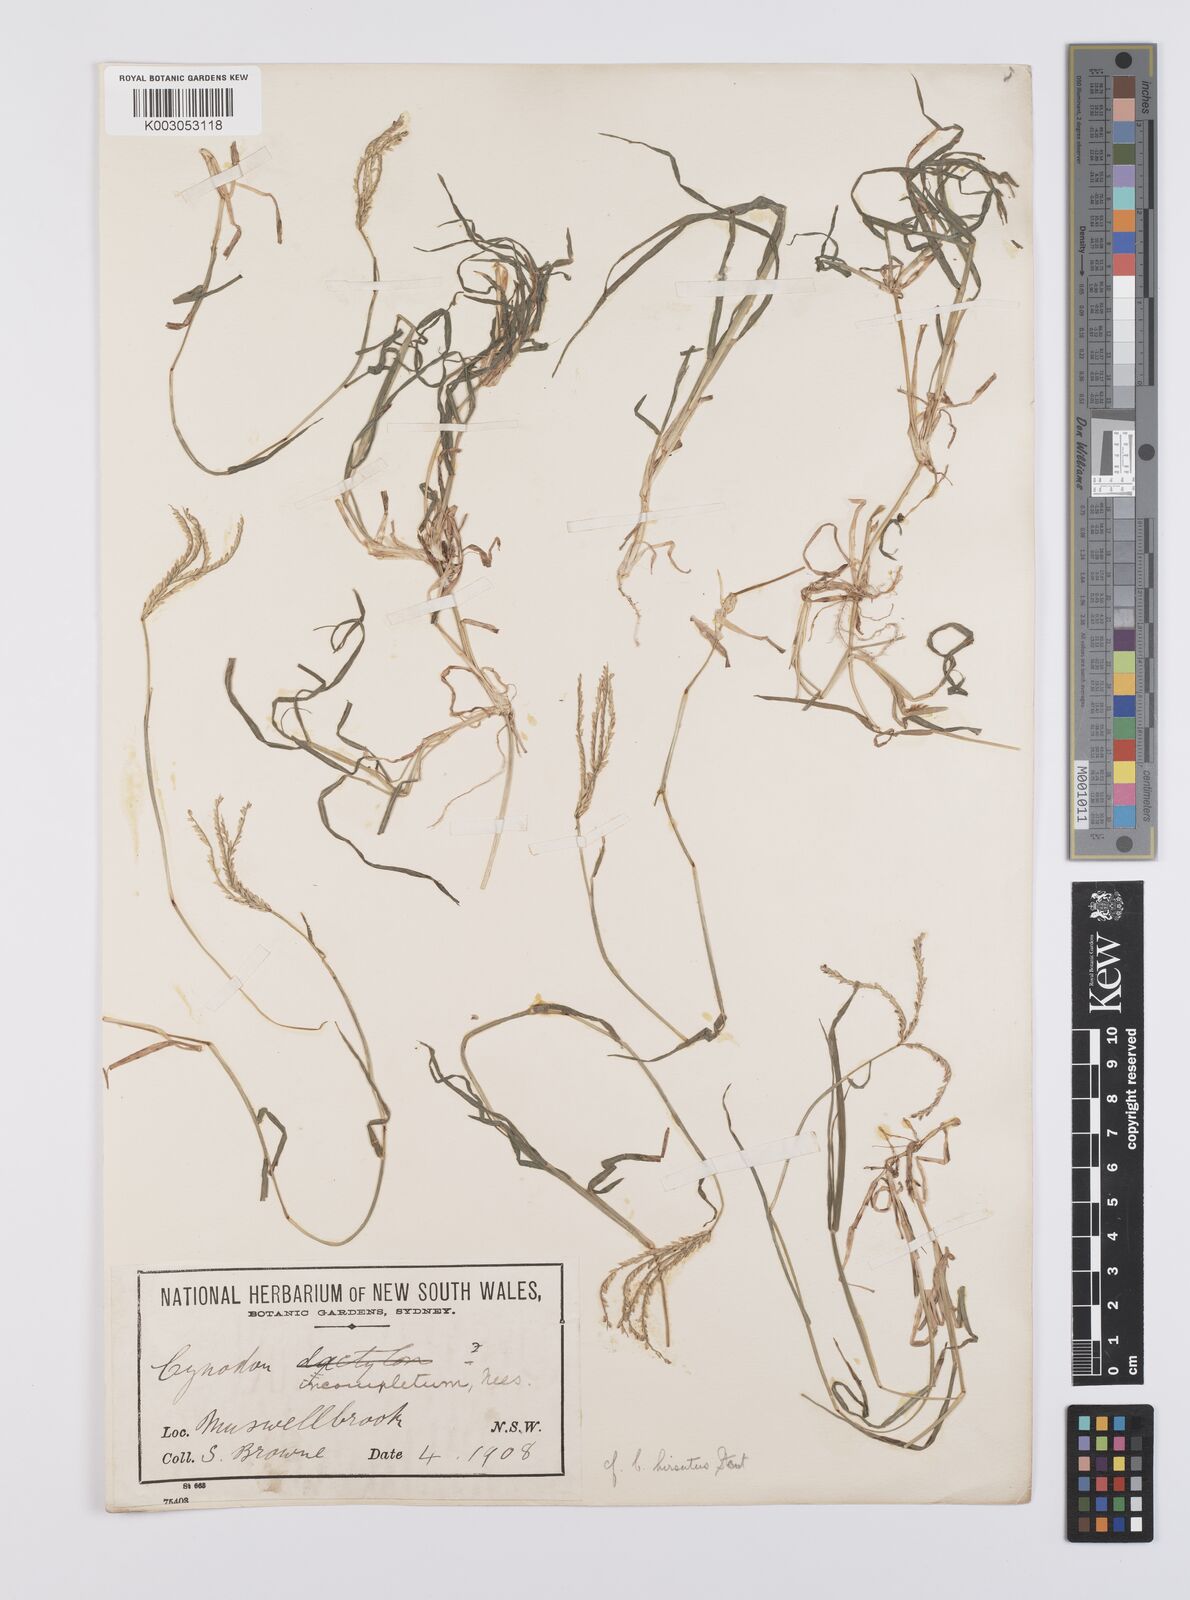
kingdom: Plantae
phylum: Tracheophyta
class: Liliopsida
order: Poales
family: Poaceae
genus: Cynodon
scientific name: Cynodon incompletus
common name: African bermuda-grass
